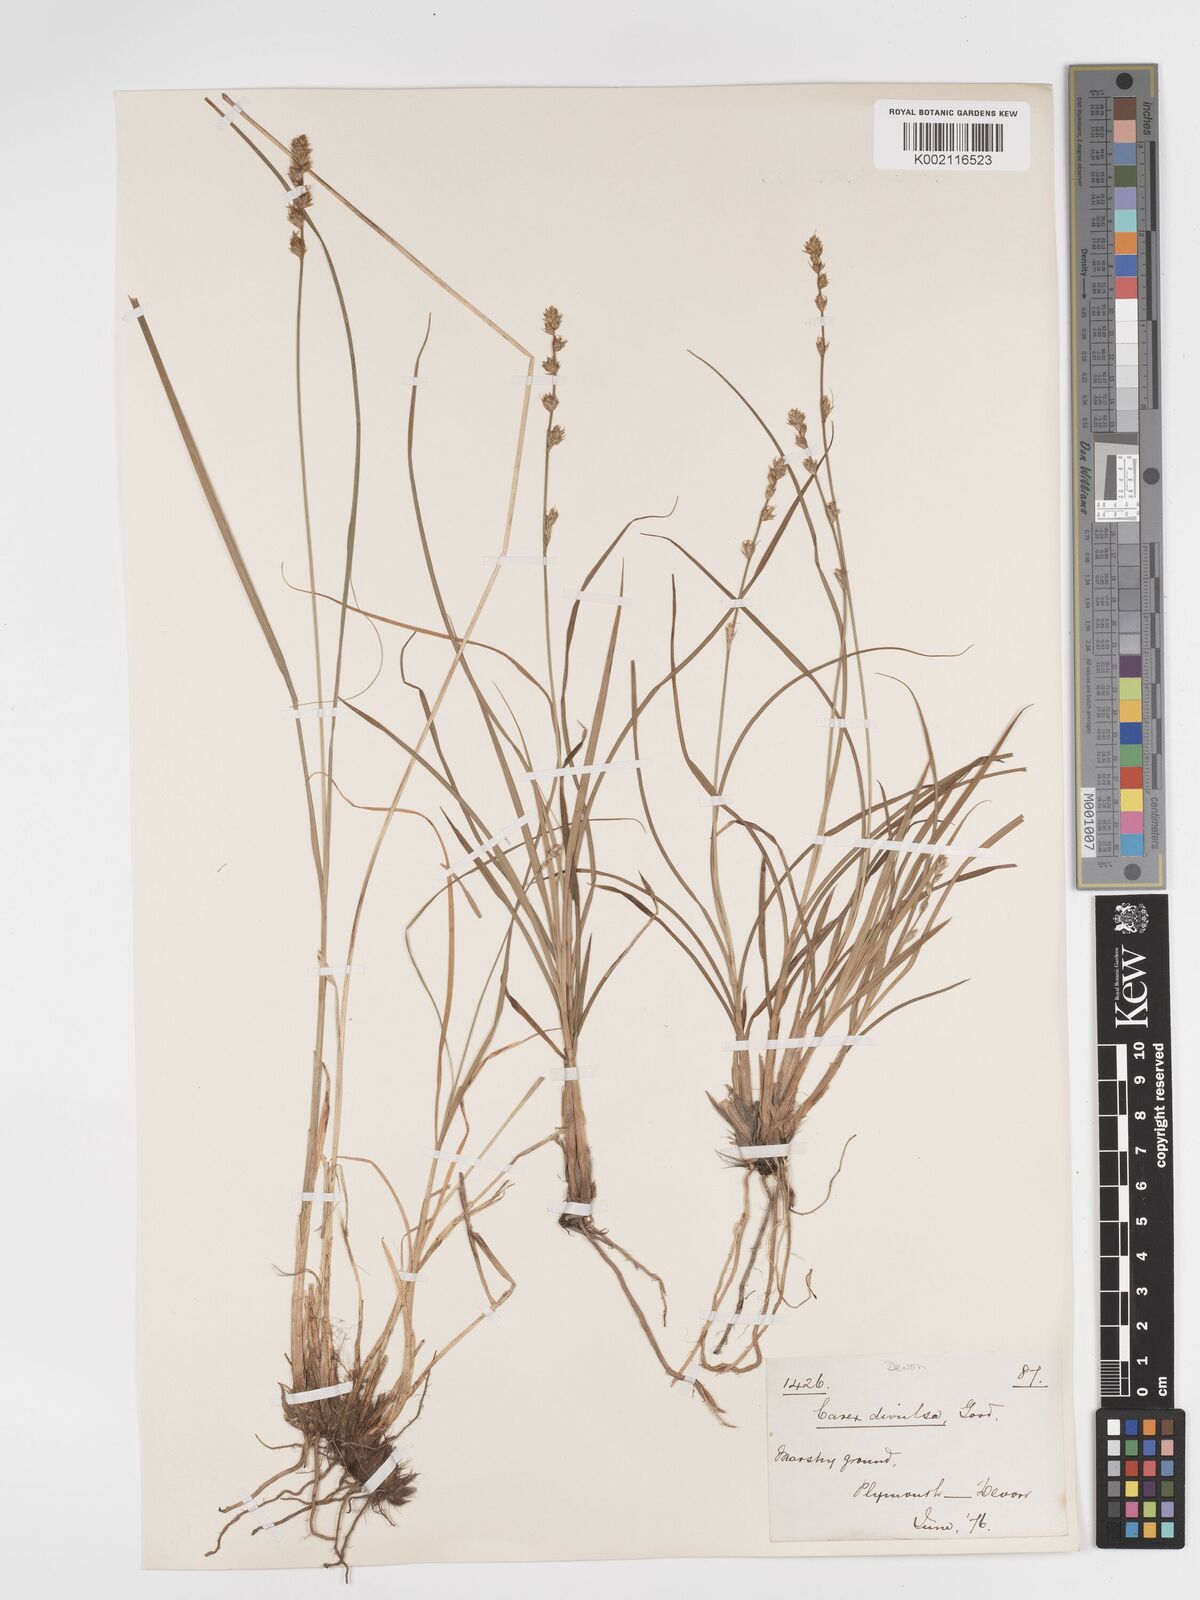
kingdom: Plantae
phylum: Tracheophyta
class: Liliopsida
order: Poales
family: Cyperaceae
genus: Carex
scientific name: Carex divulsa
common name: Grassland sedge
